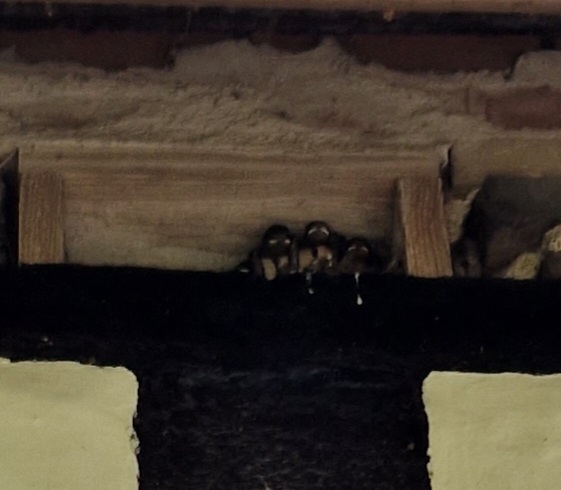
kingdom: Animalia
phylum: Chordata
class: Aves
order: Passeriformes
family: Hirundinidae
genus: Hirundo
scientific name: Hirundo rustica
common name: Landsvale
